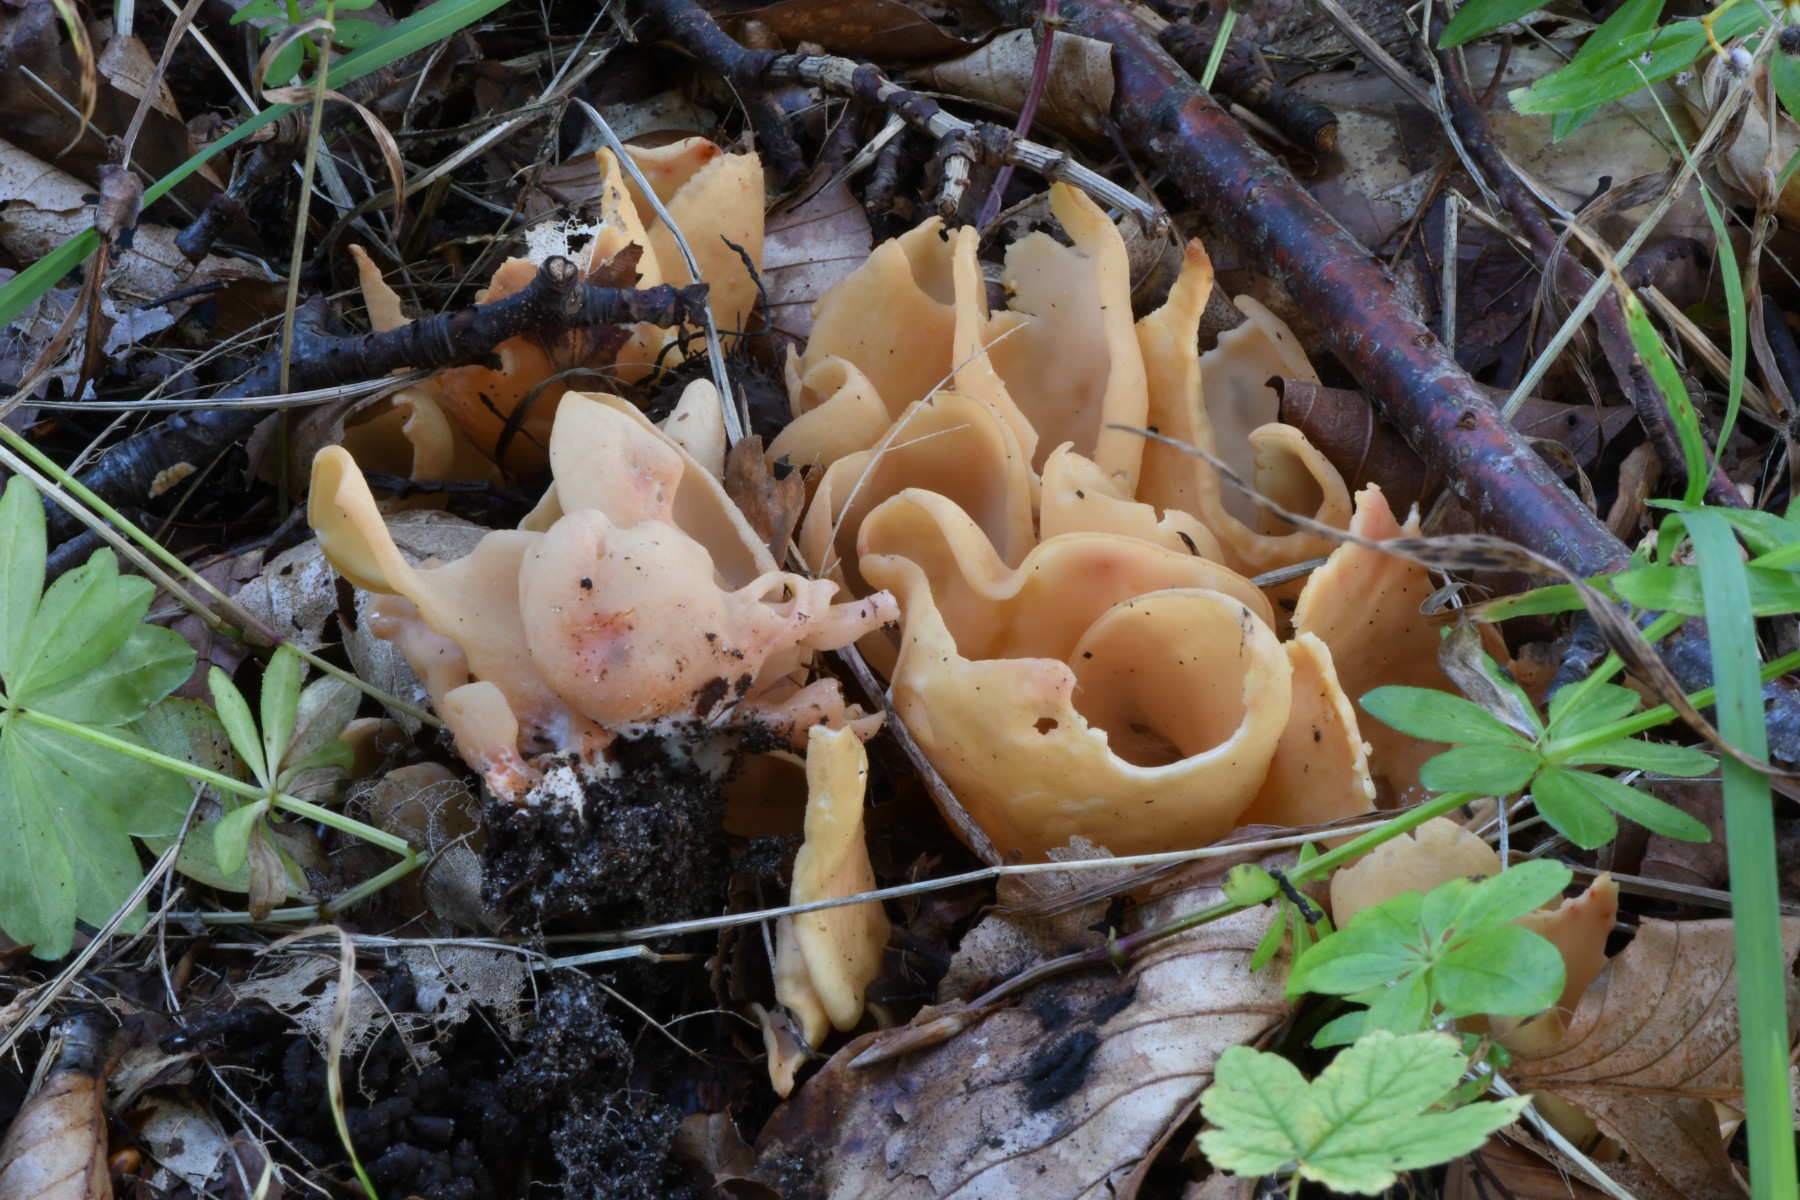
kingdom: Fungi
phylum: Ascomycota
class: Pezizomycetes
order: Pezizales
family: Otideaceae
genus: Otidea
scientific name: Otidea onotica
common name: æsel-ørebæger
